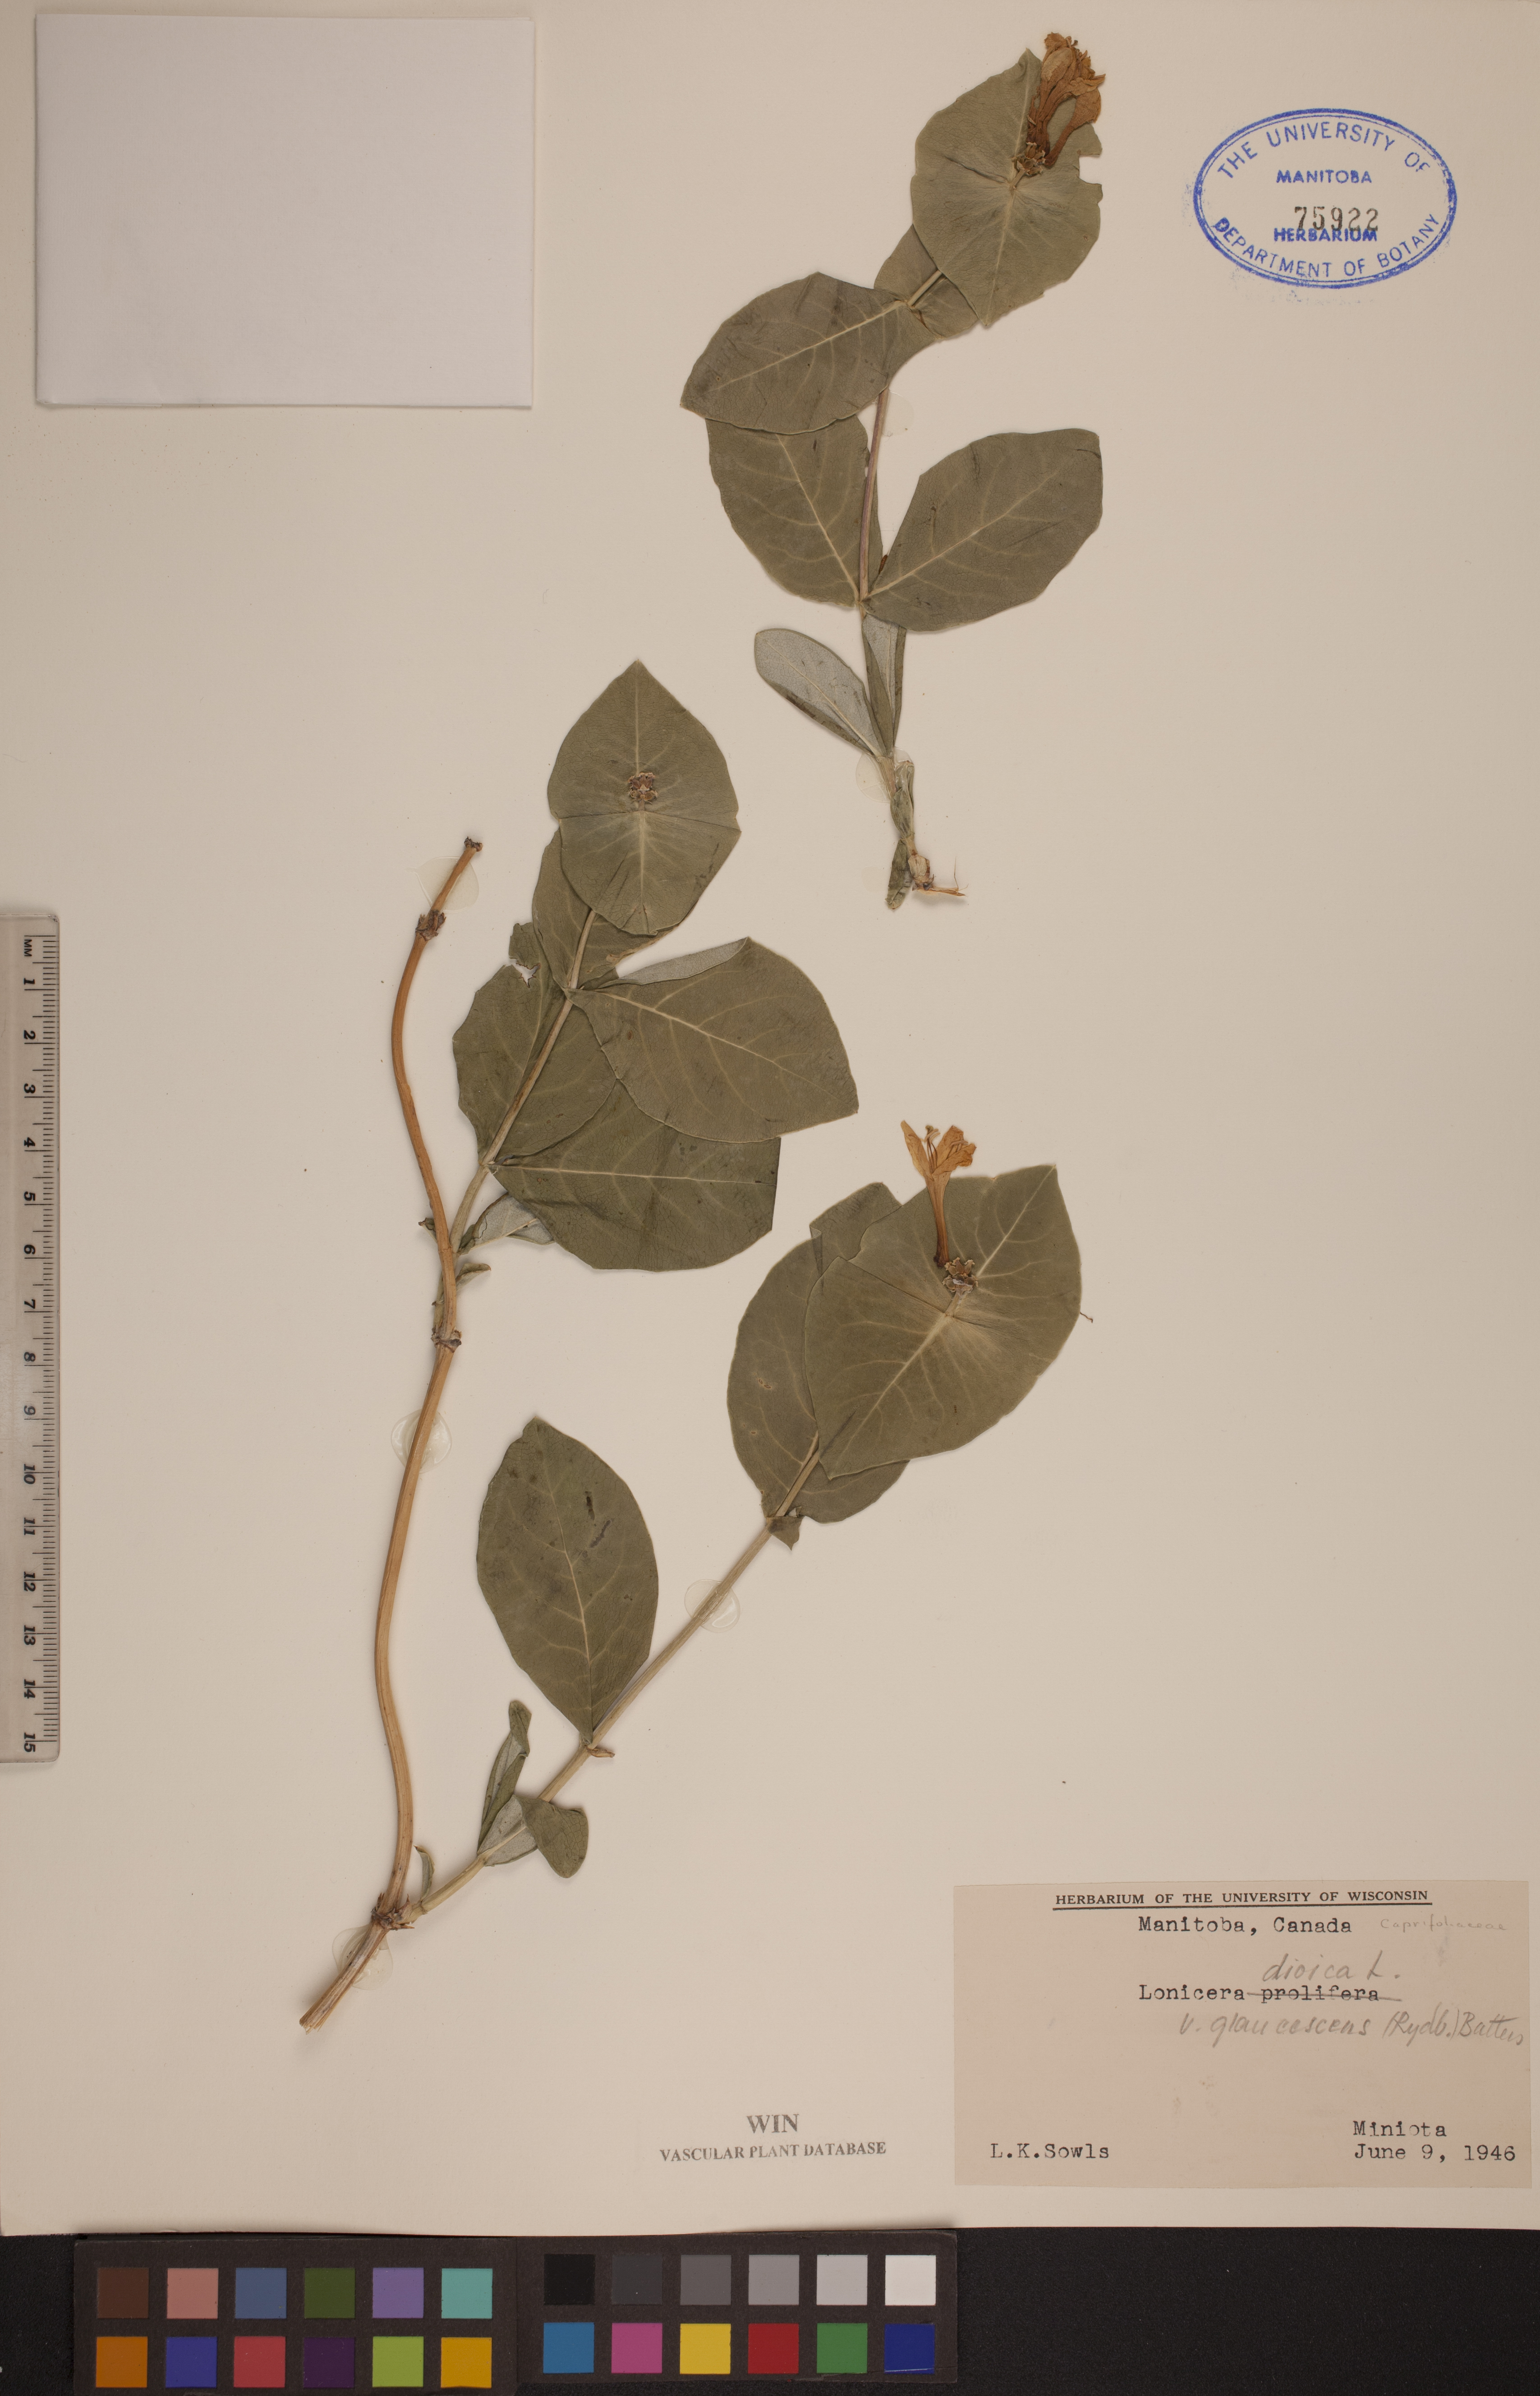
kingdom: Plantae
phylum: Tracheophyta
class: Magnoliopsida
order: Dipsacales
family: Caprifoliaceae
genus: Lonicera
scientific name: Lonicera dioica
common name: Limber honeysuckle
